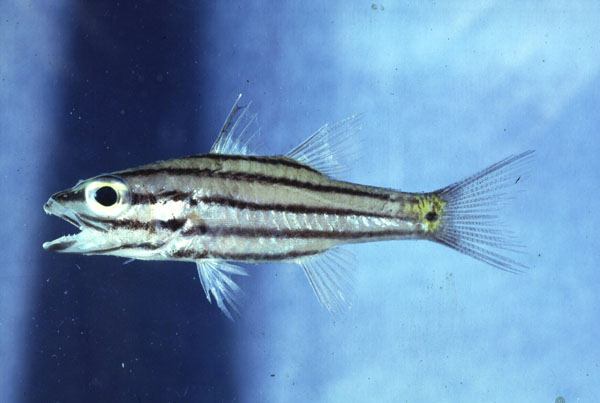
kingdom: Animalia
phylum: Chordata
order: Perciformes
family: Apogonidae
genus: Cheilodipterus
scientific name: Cheilodipterus quinquelineatus
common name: Five-lined cardinalfish
